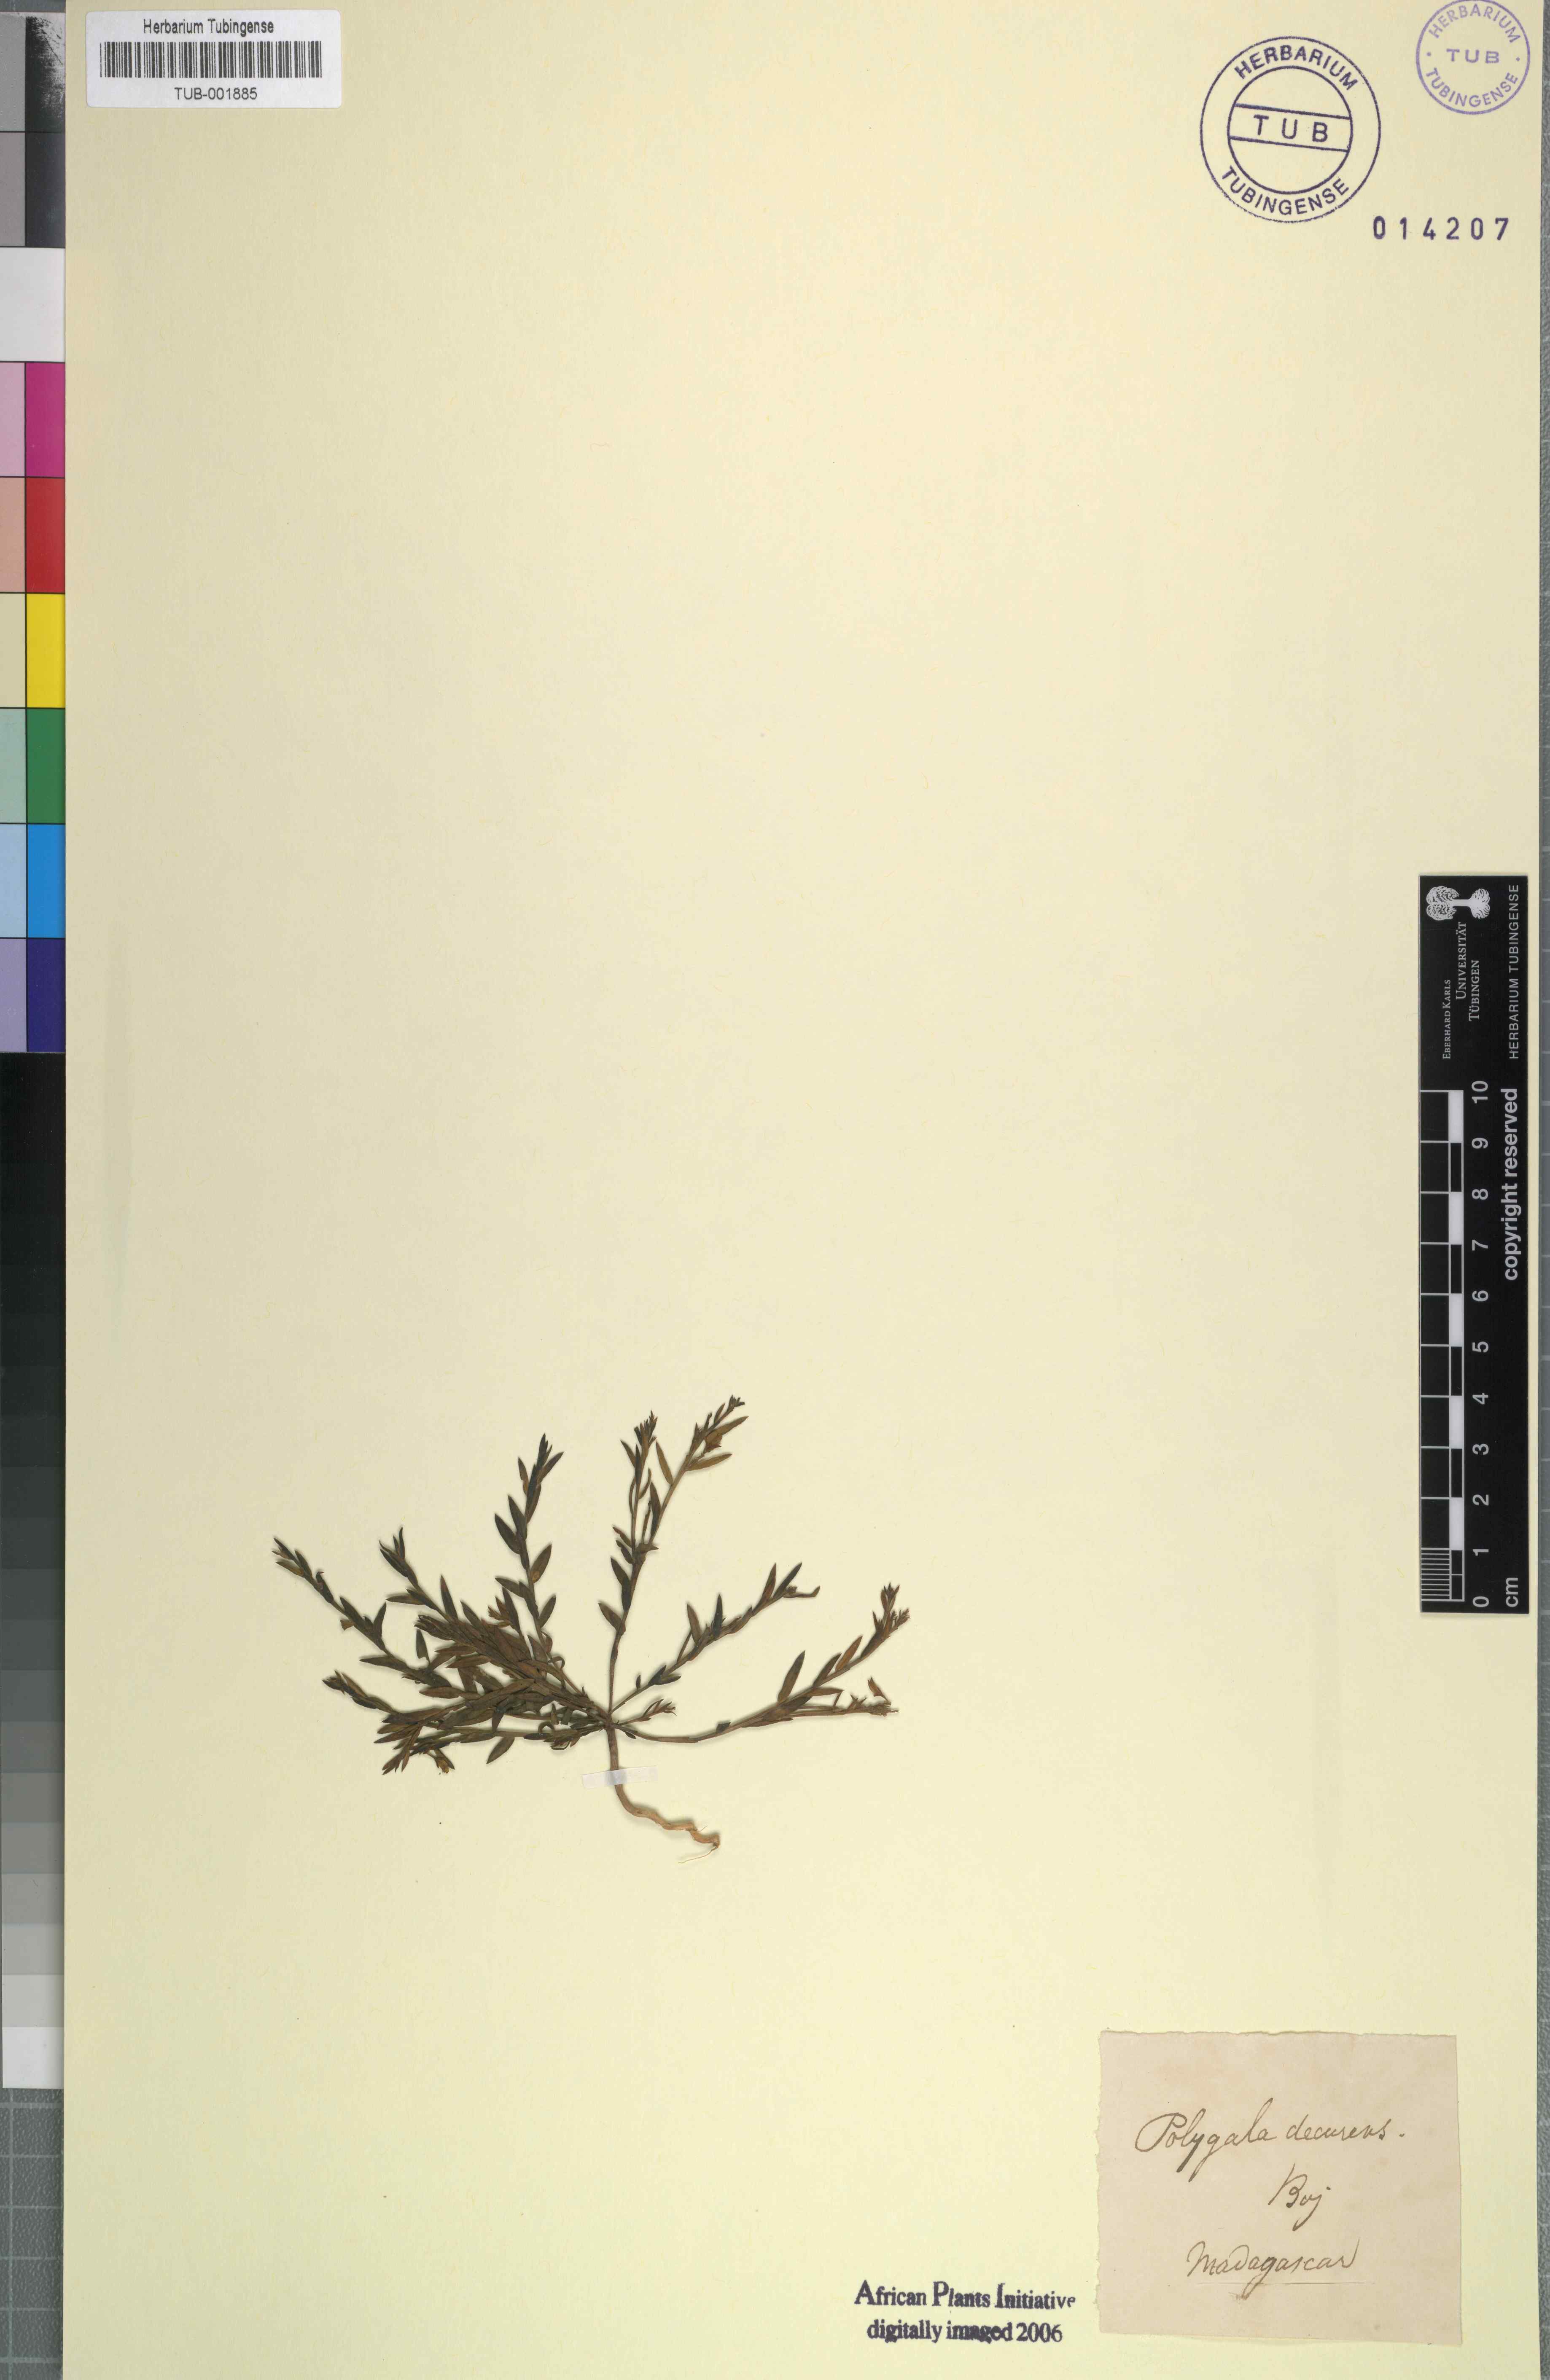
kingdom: Plantae
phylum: Tracheophyta
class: Magnoliopsida
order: Fabales
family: Polygalaceae
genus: Polygala
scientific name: Polygala
